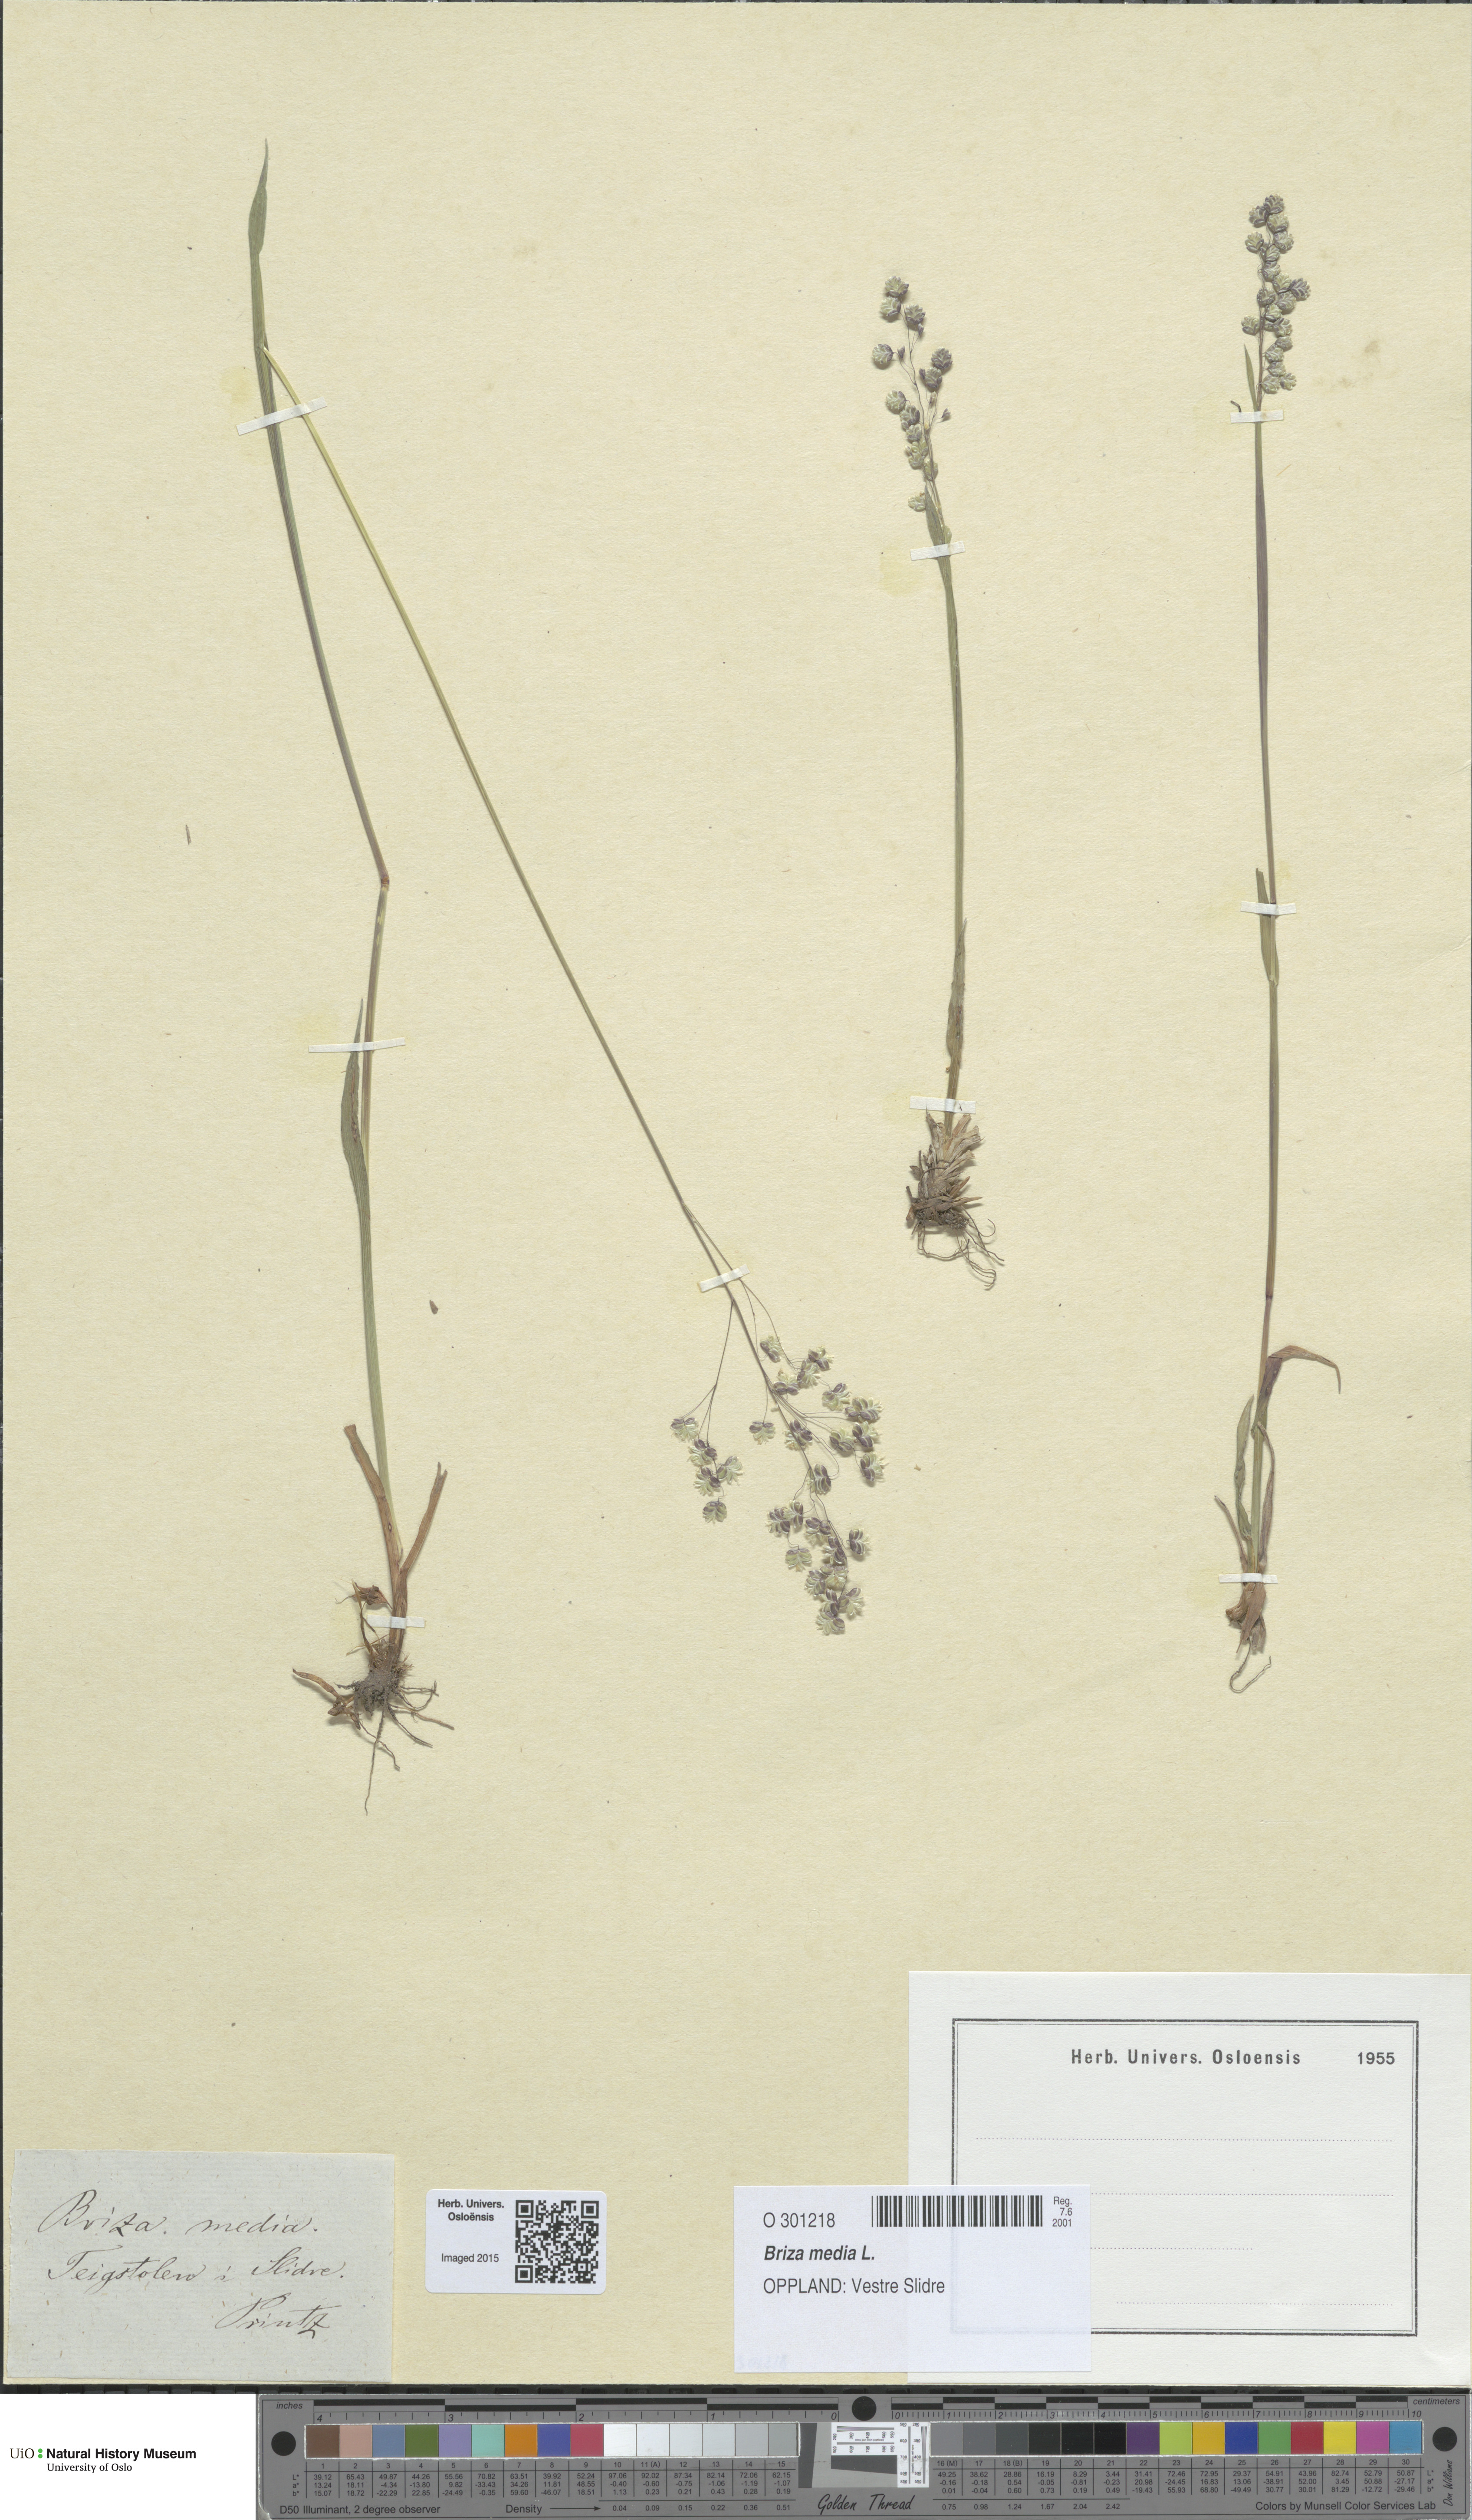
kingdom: Plantae
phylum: Tracheophyta
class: Liliopsida
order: Poales
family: Poaceae
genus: Briza
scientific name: Briza media
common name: Quaking grass
